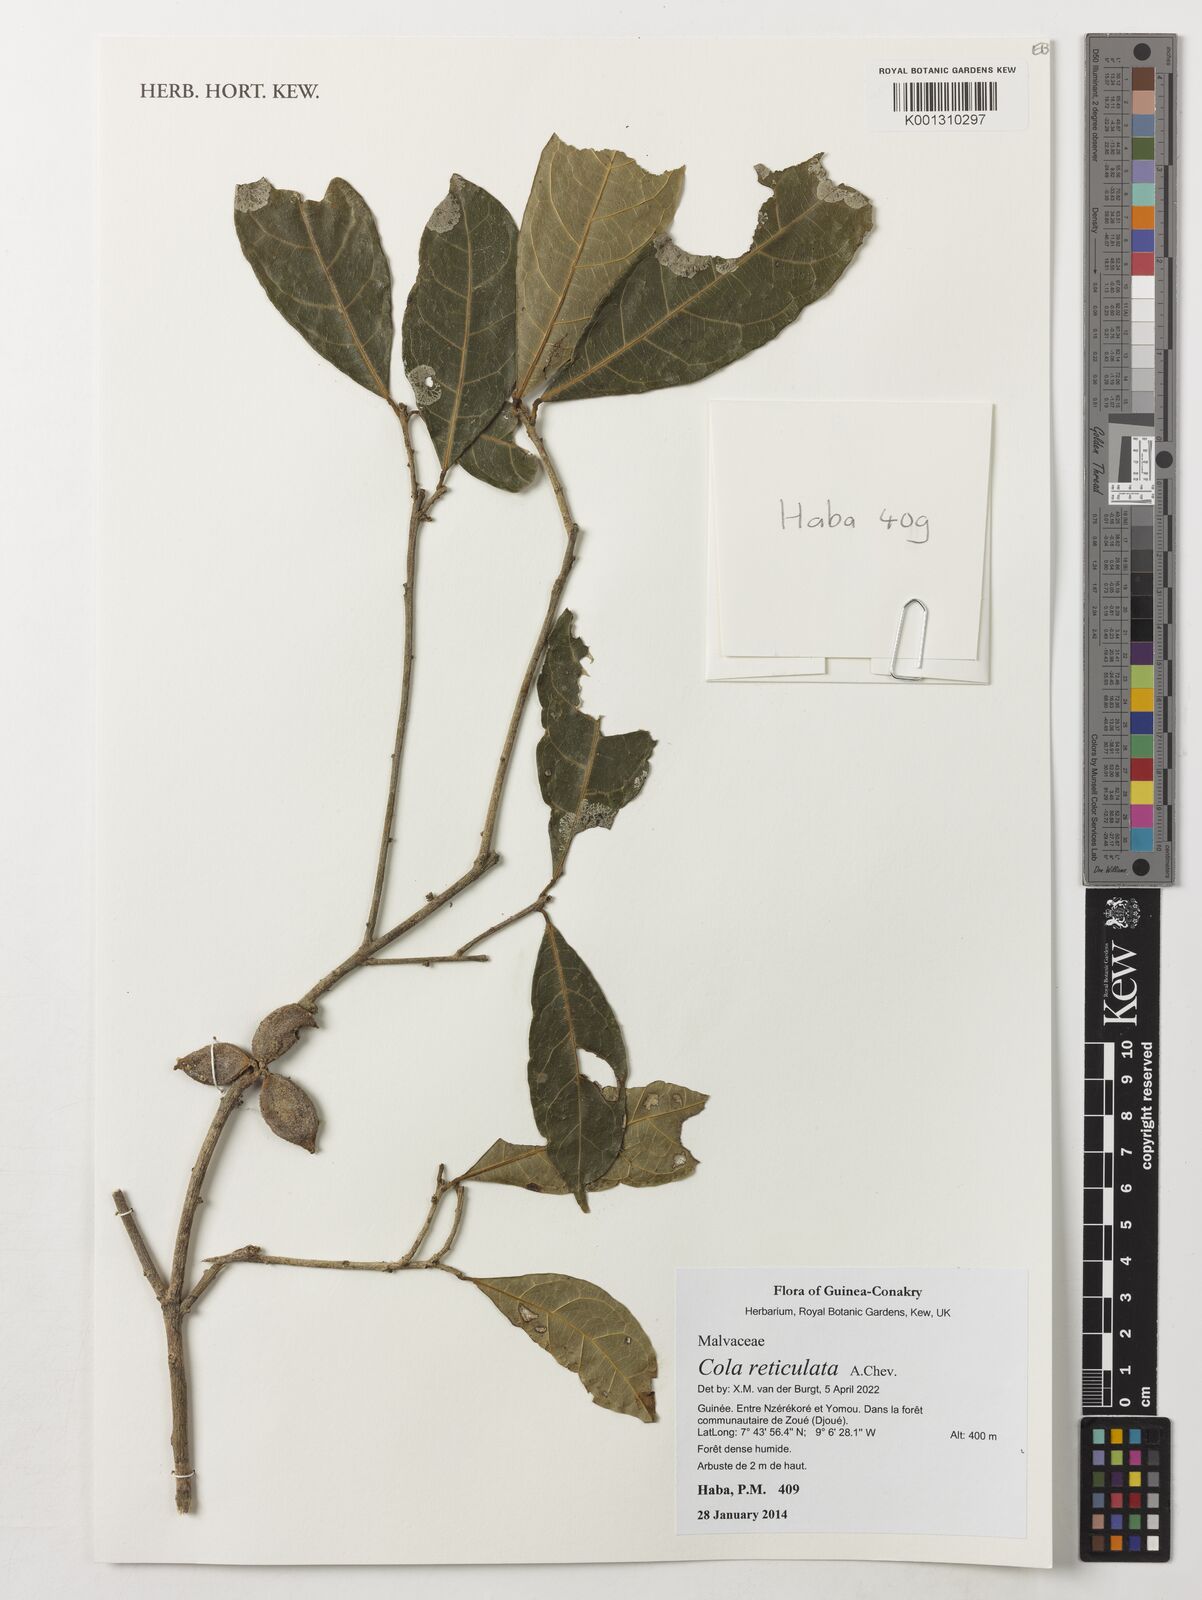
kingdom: Plantae
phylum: Tracheophyta
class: Magnoliopsida
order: Malvales
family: Malvaceae
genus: Cola
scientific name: Cola reticulata
